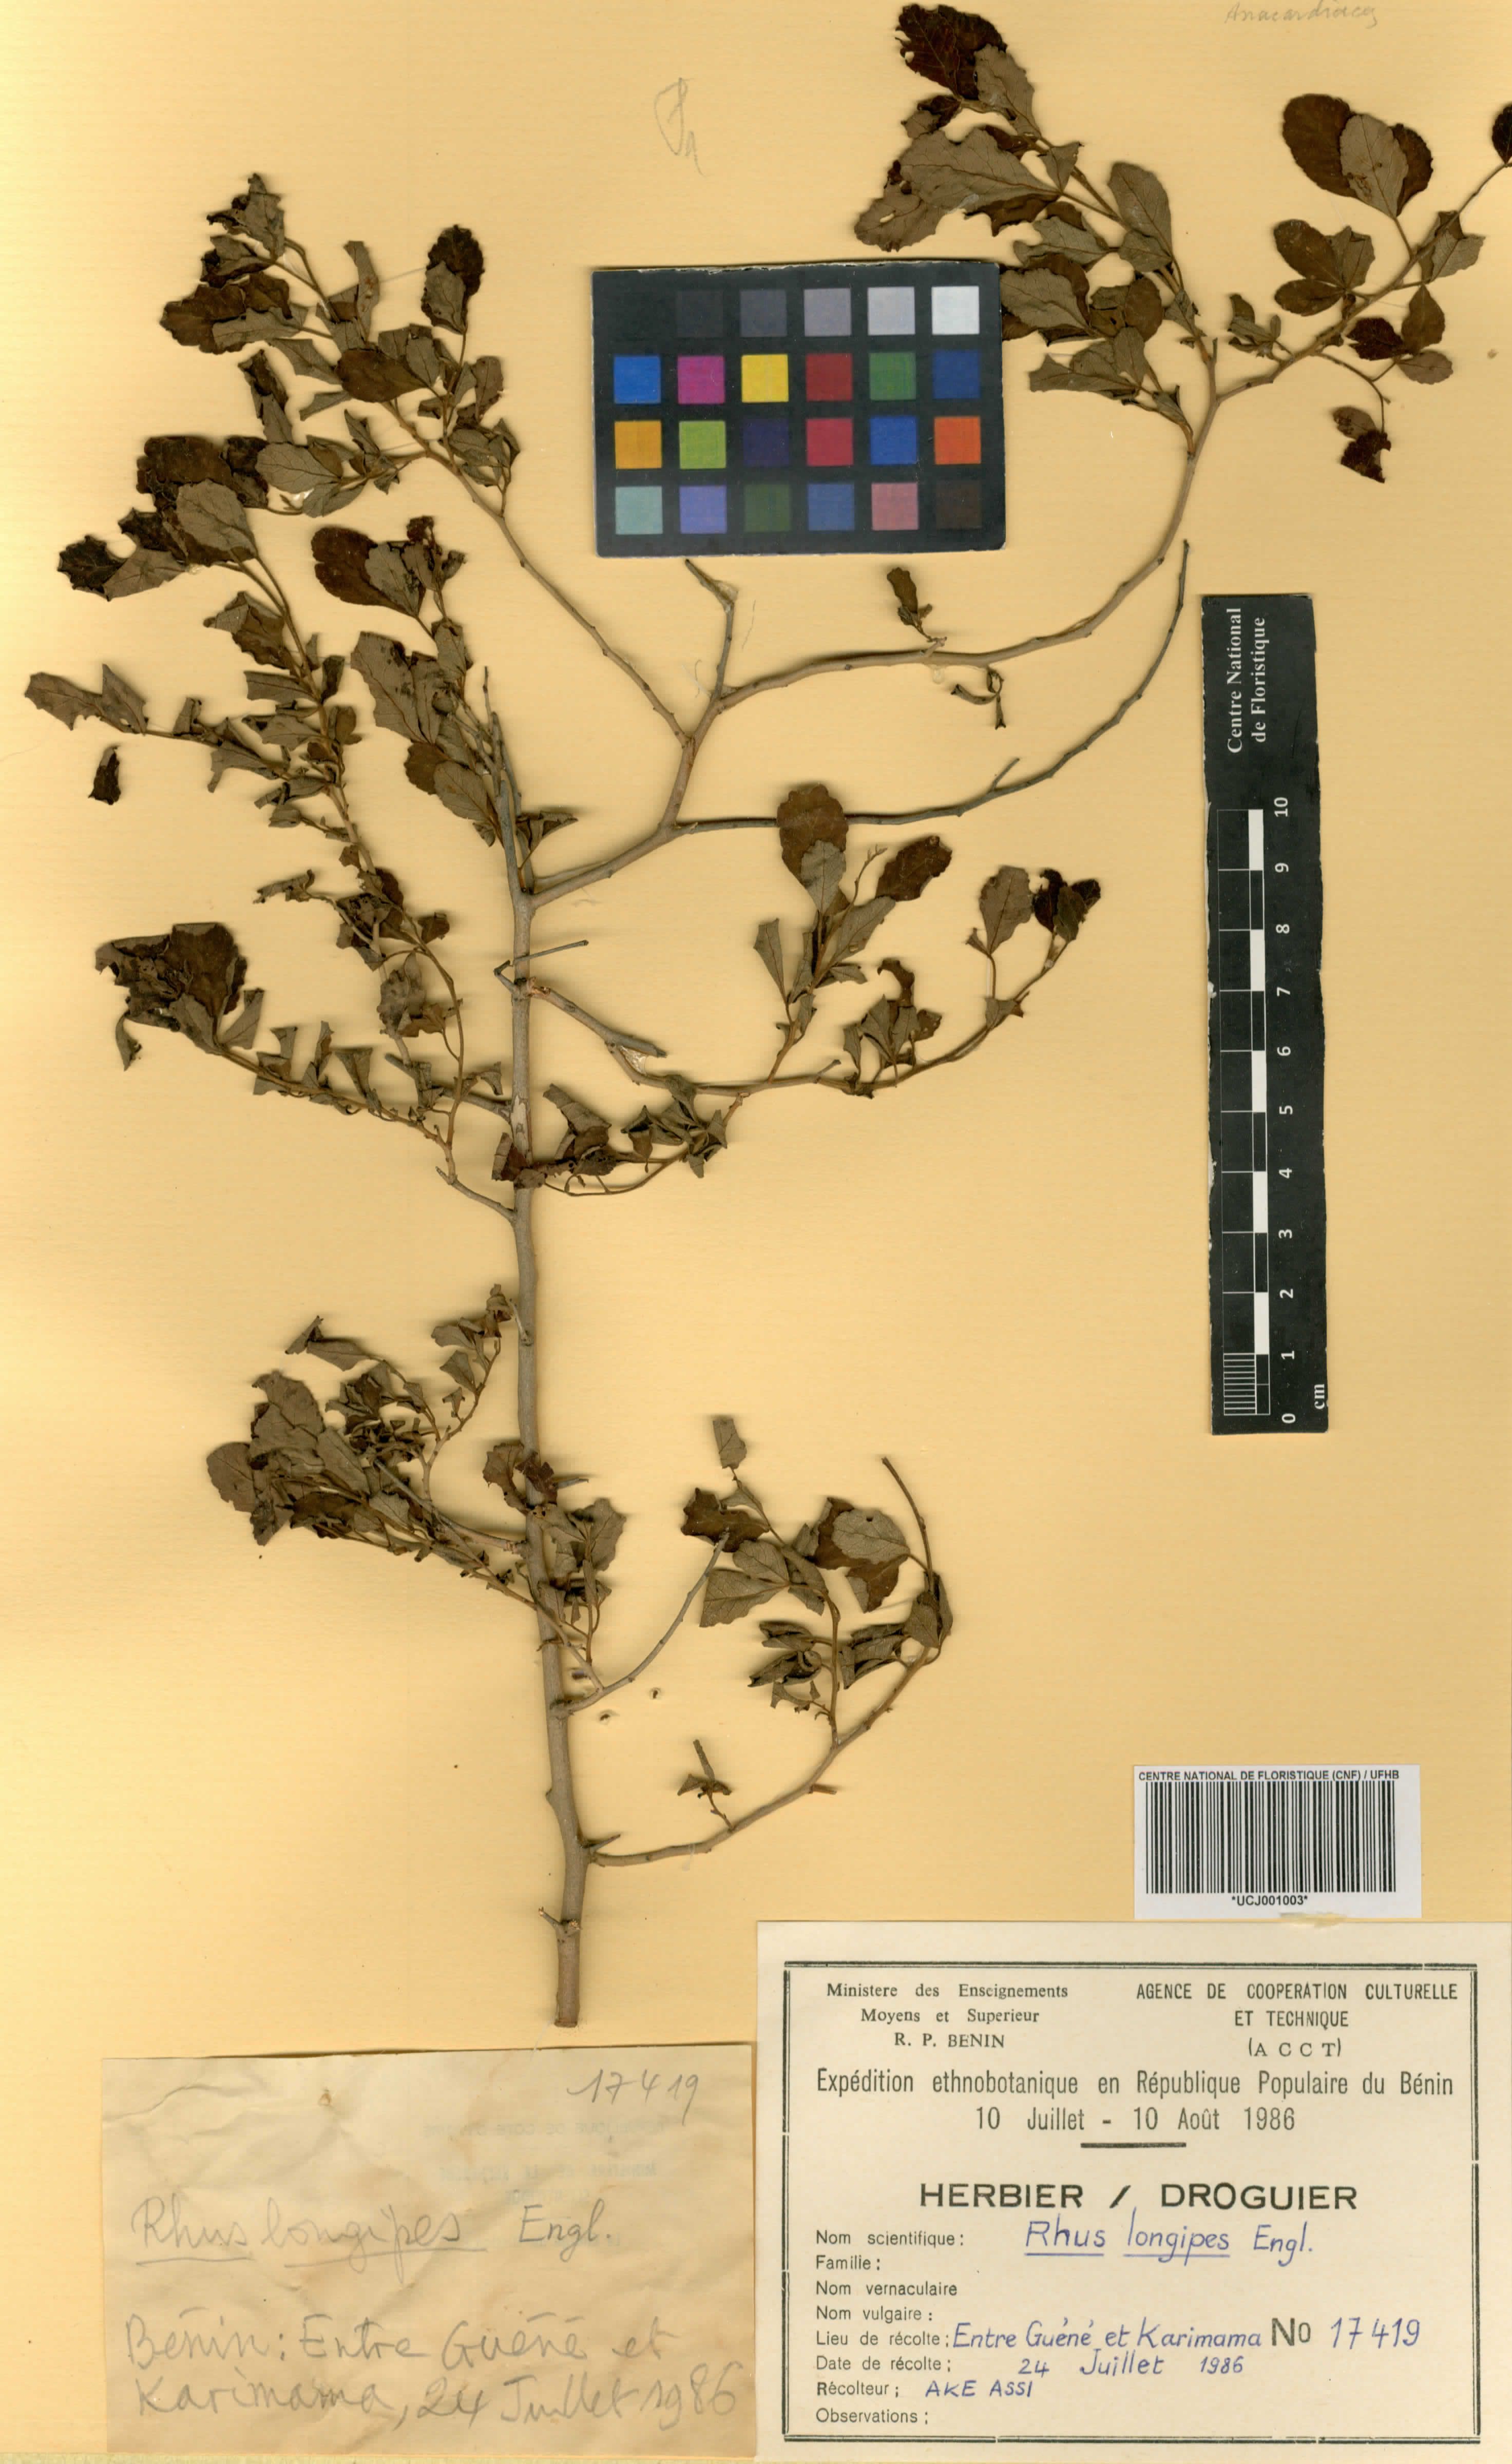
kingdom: Plantae
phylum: Tracheophyta
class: Magnoliopsida
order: Sapindales
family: Anacardiaceae
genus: Searsia
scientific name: Searsia longipes
